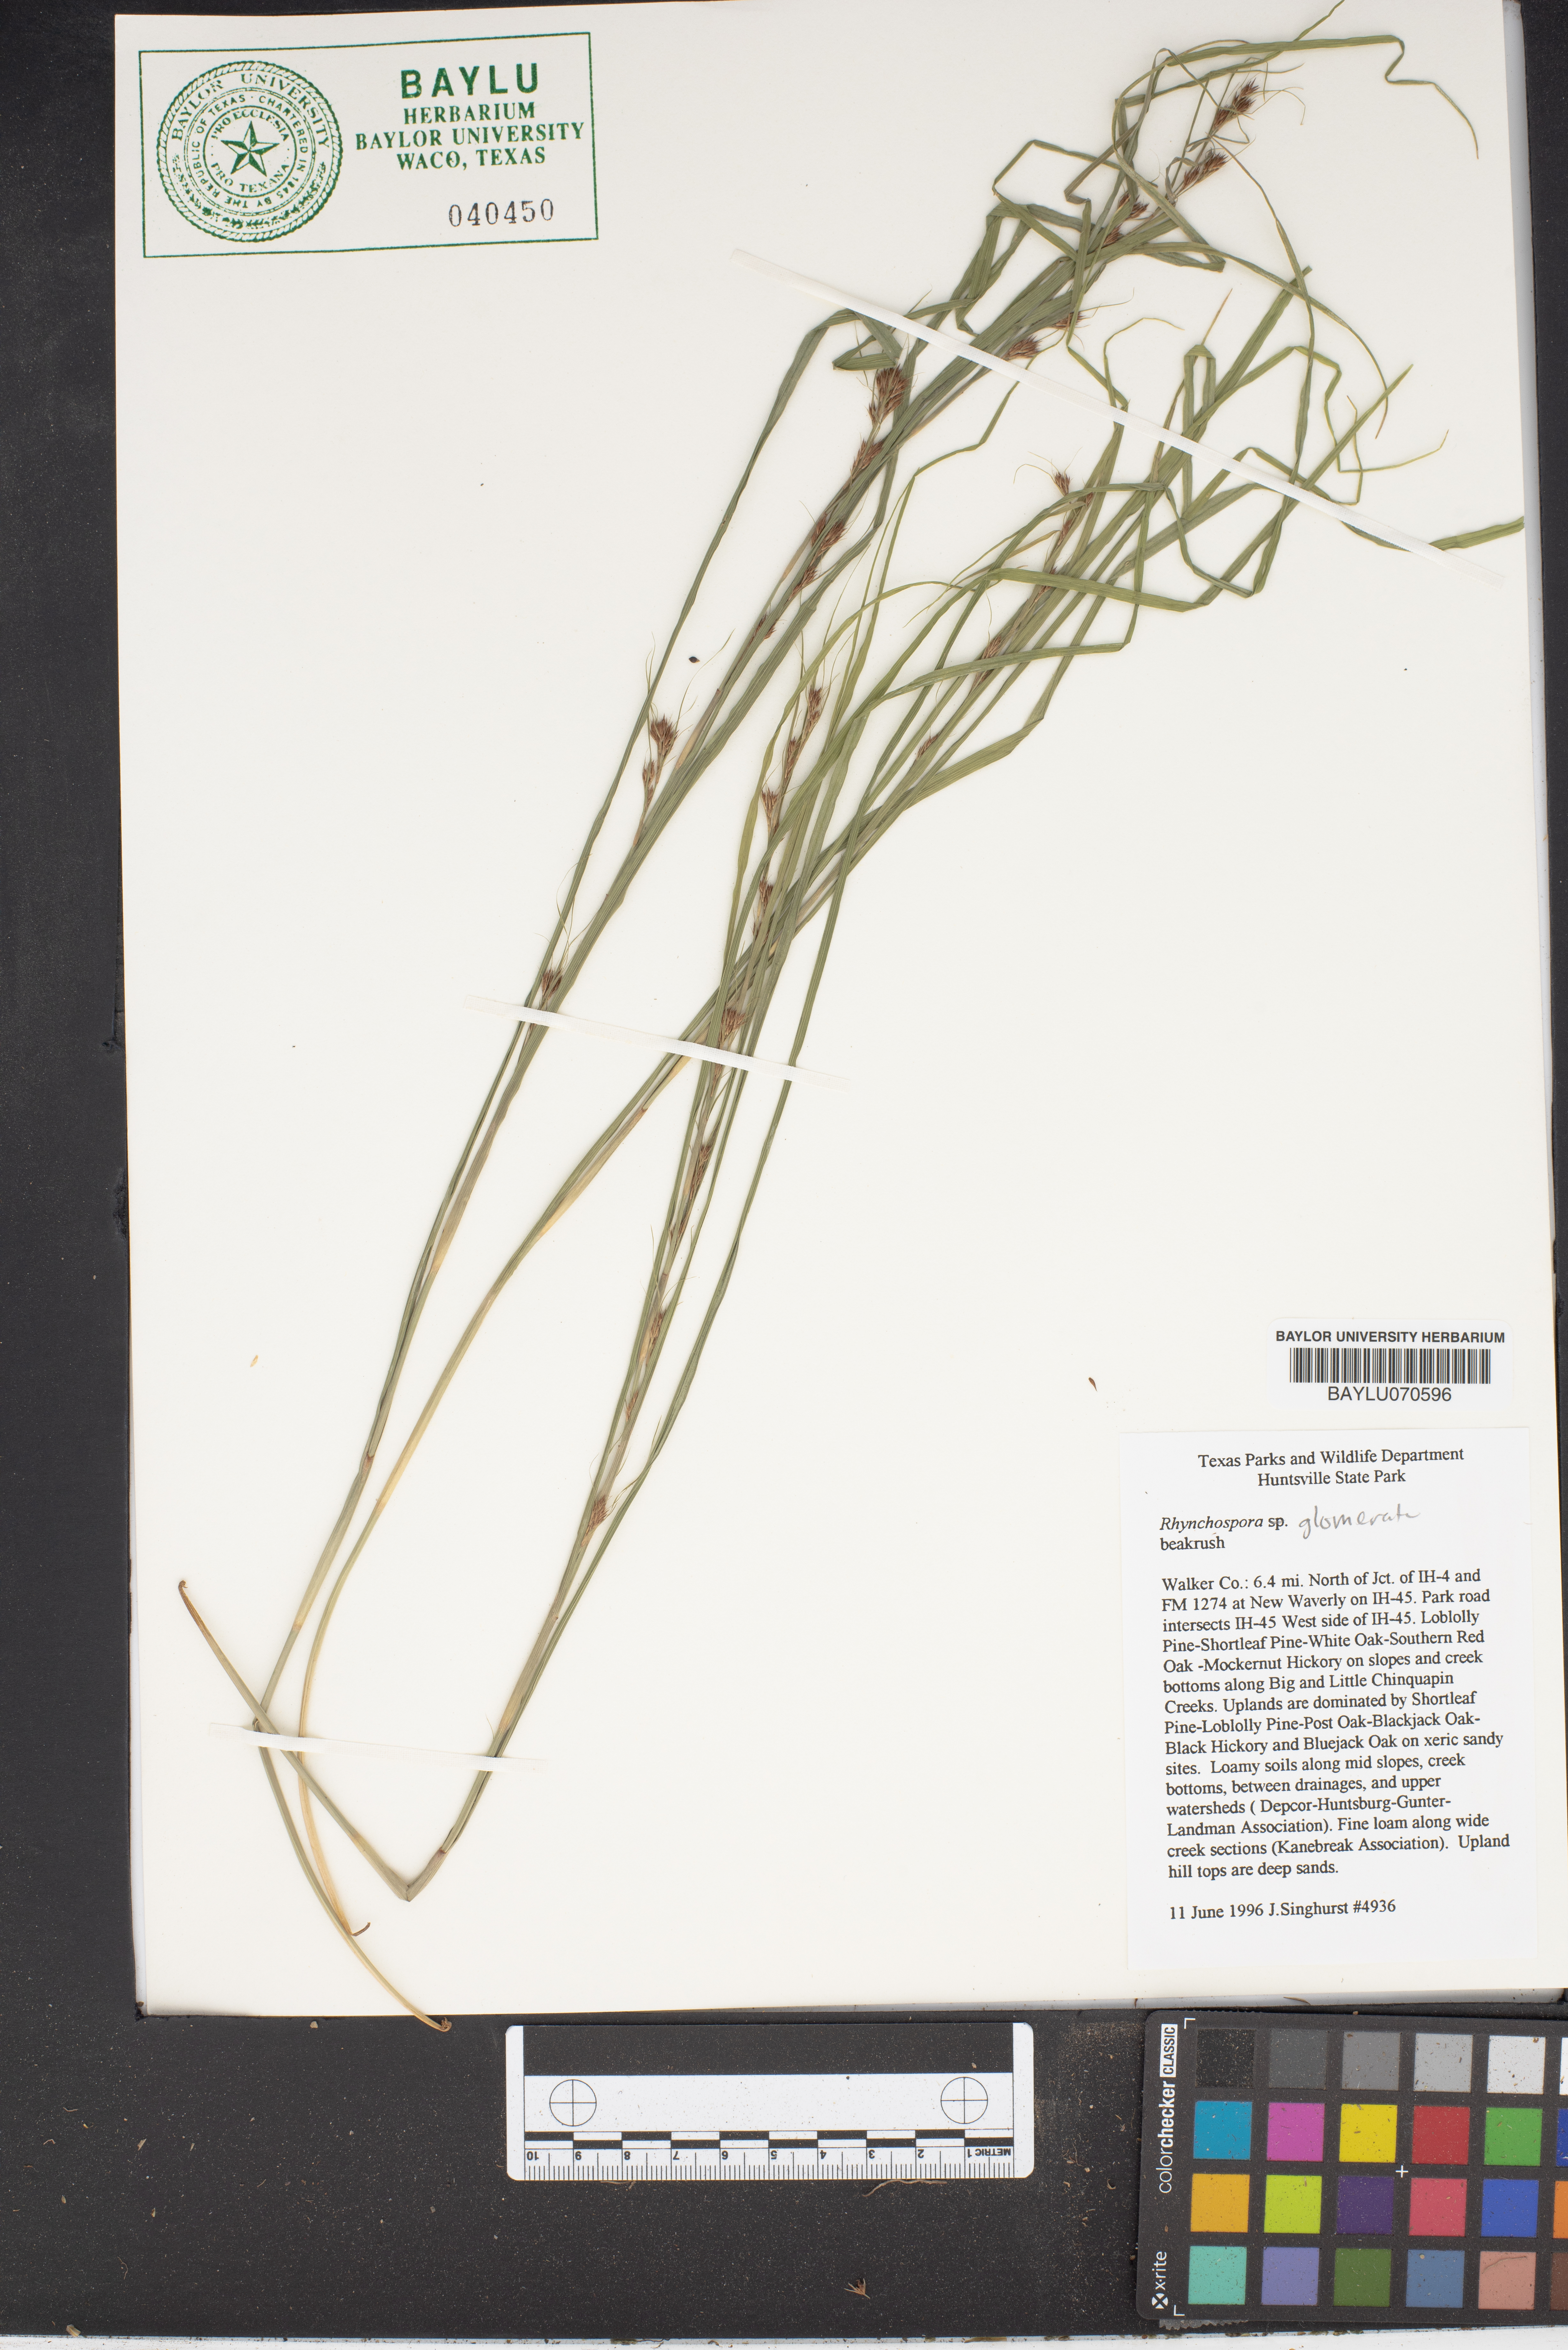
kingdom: Plantae
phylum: Tracheophyta
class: Liliopsida
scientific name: Liliopsida
